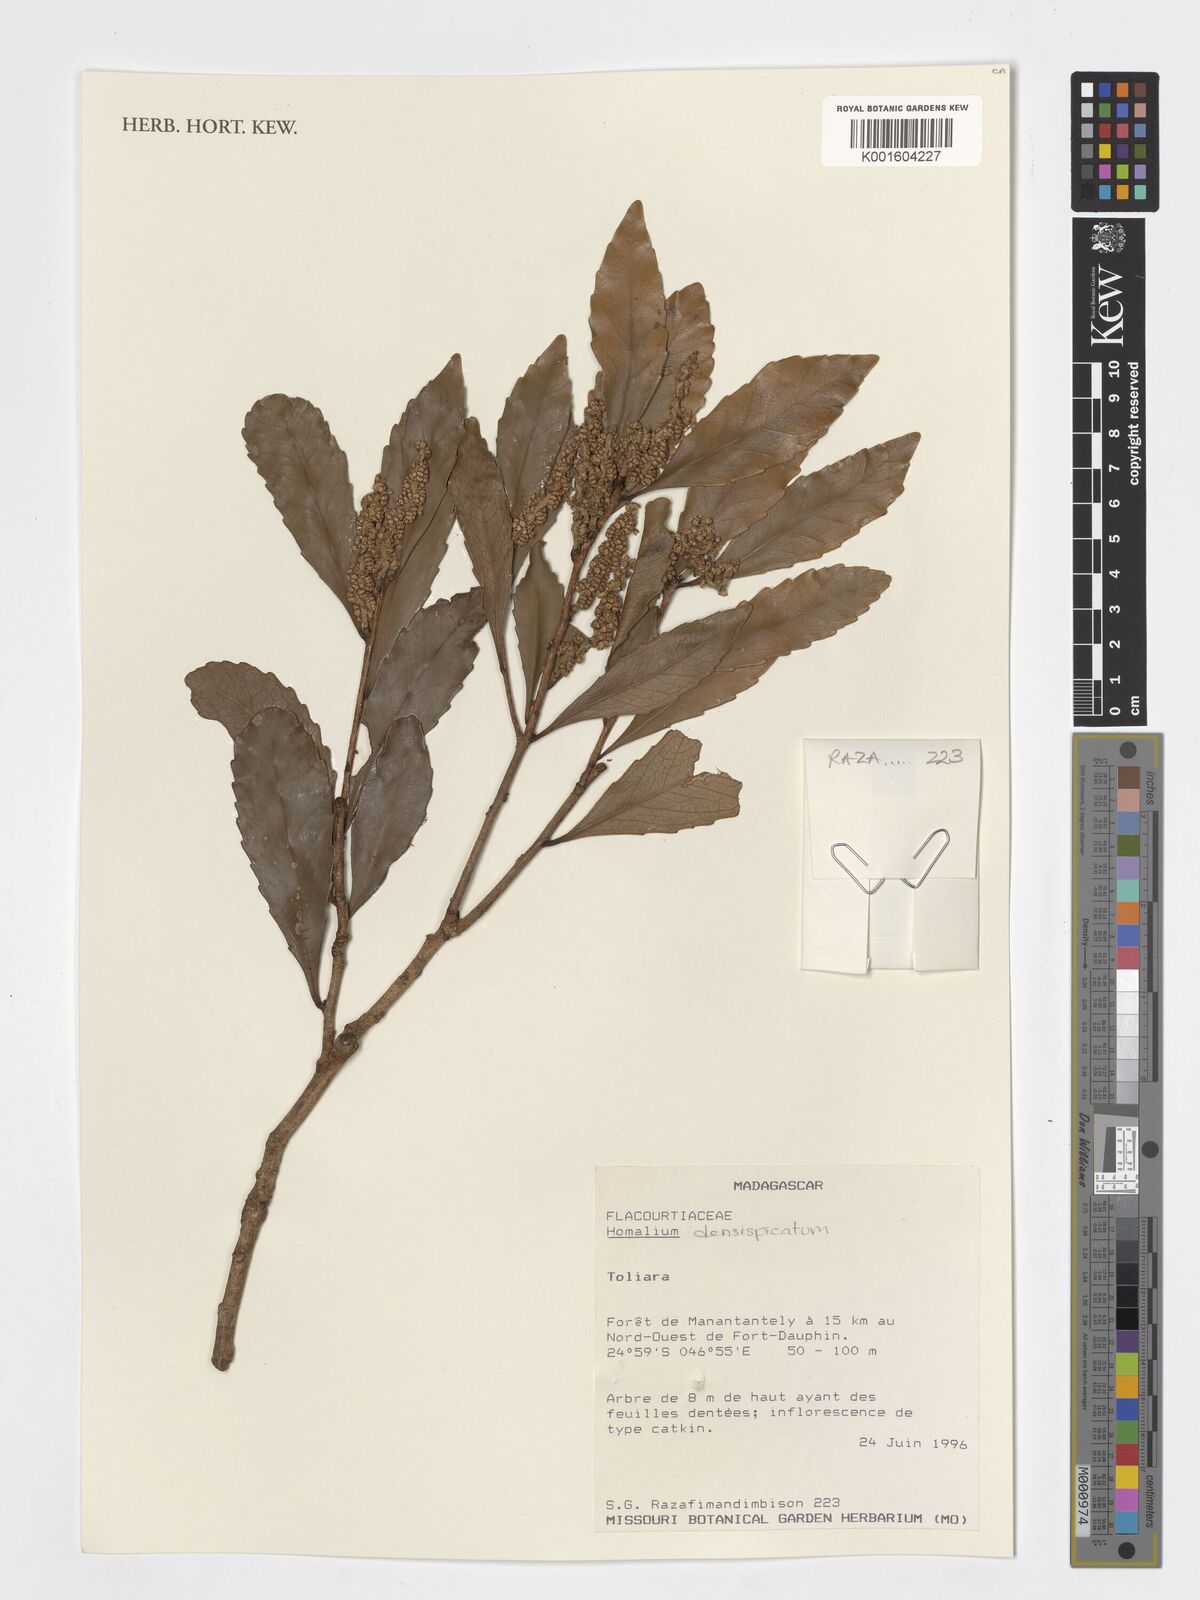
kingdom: Plantae
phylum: Tracheophyta
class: Magnoliopsida
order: Malpighiales
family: Salicaceae
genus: Homalium
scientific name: Homalium densispicatum
